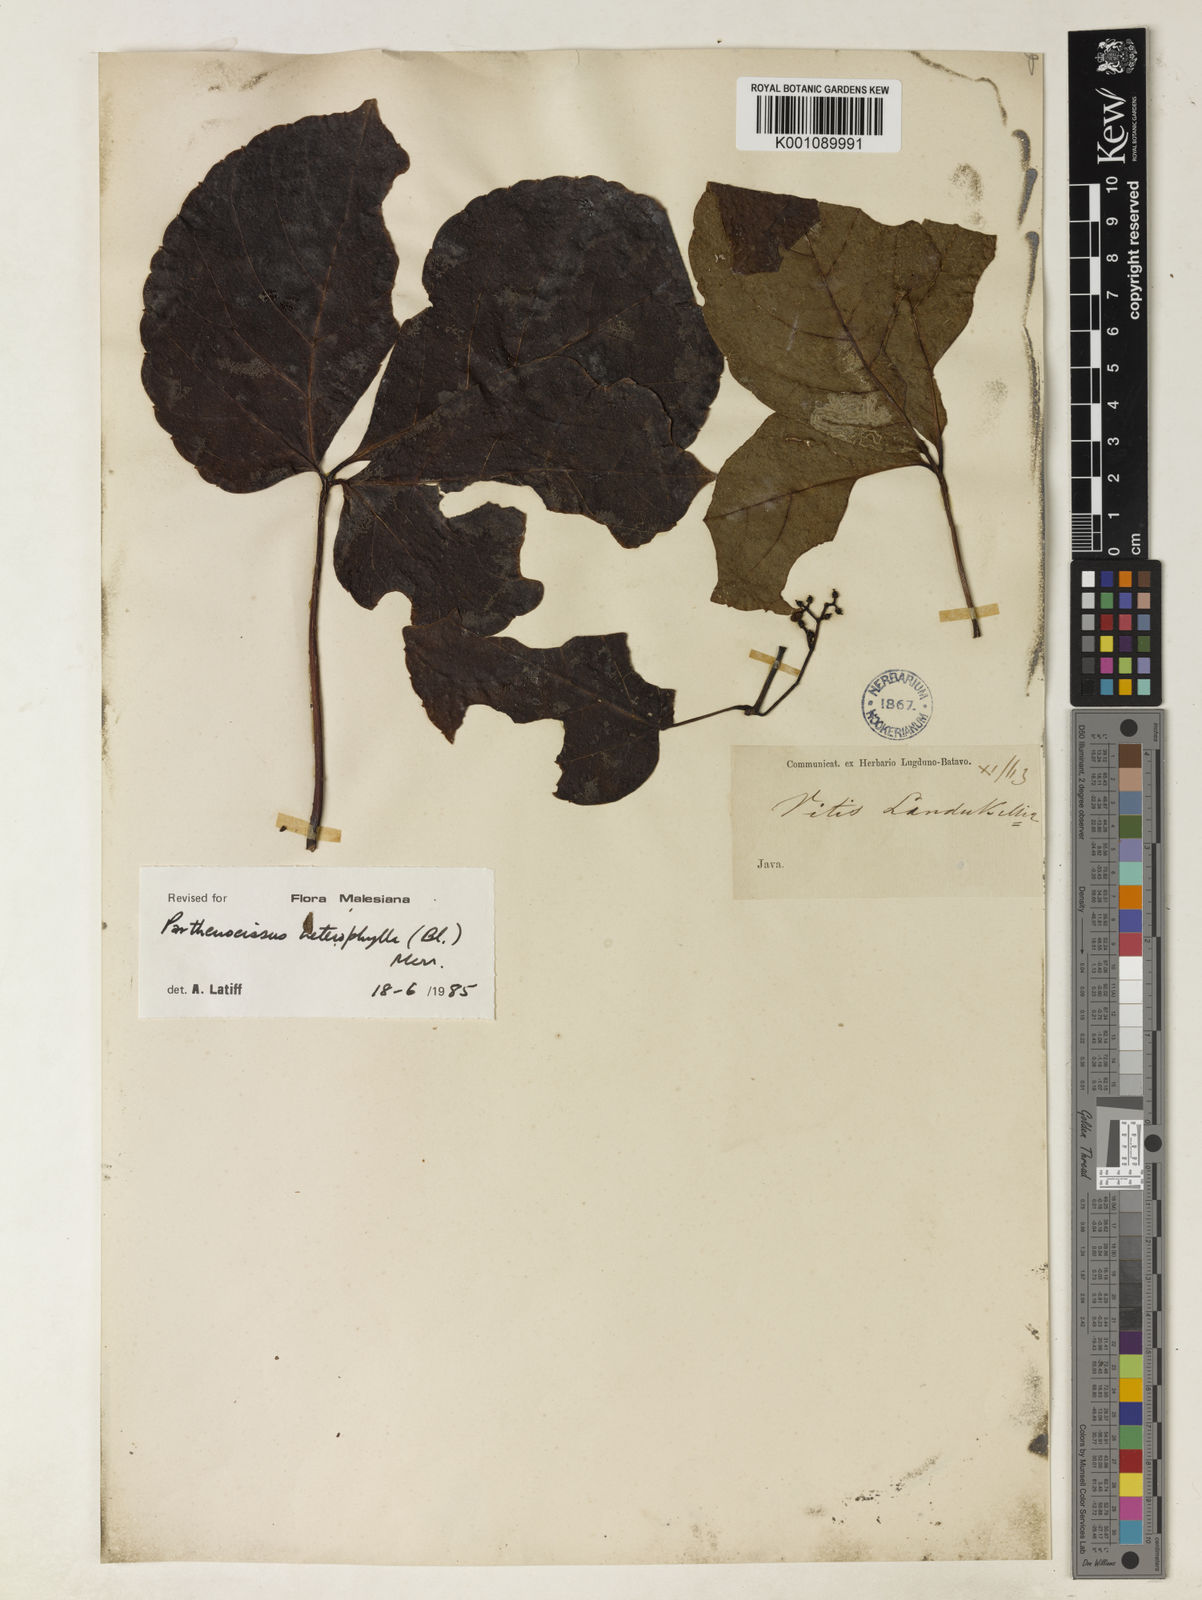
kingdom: Plantae
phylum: Tracheophyta
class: Magnoliopsida
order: Vitales
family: Vitaceae
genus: Parthenocissus
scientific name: Parthenocissus semicordata
